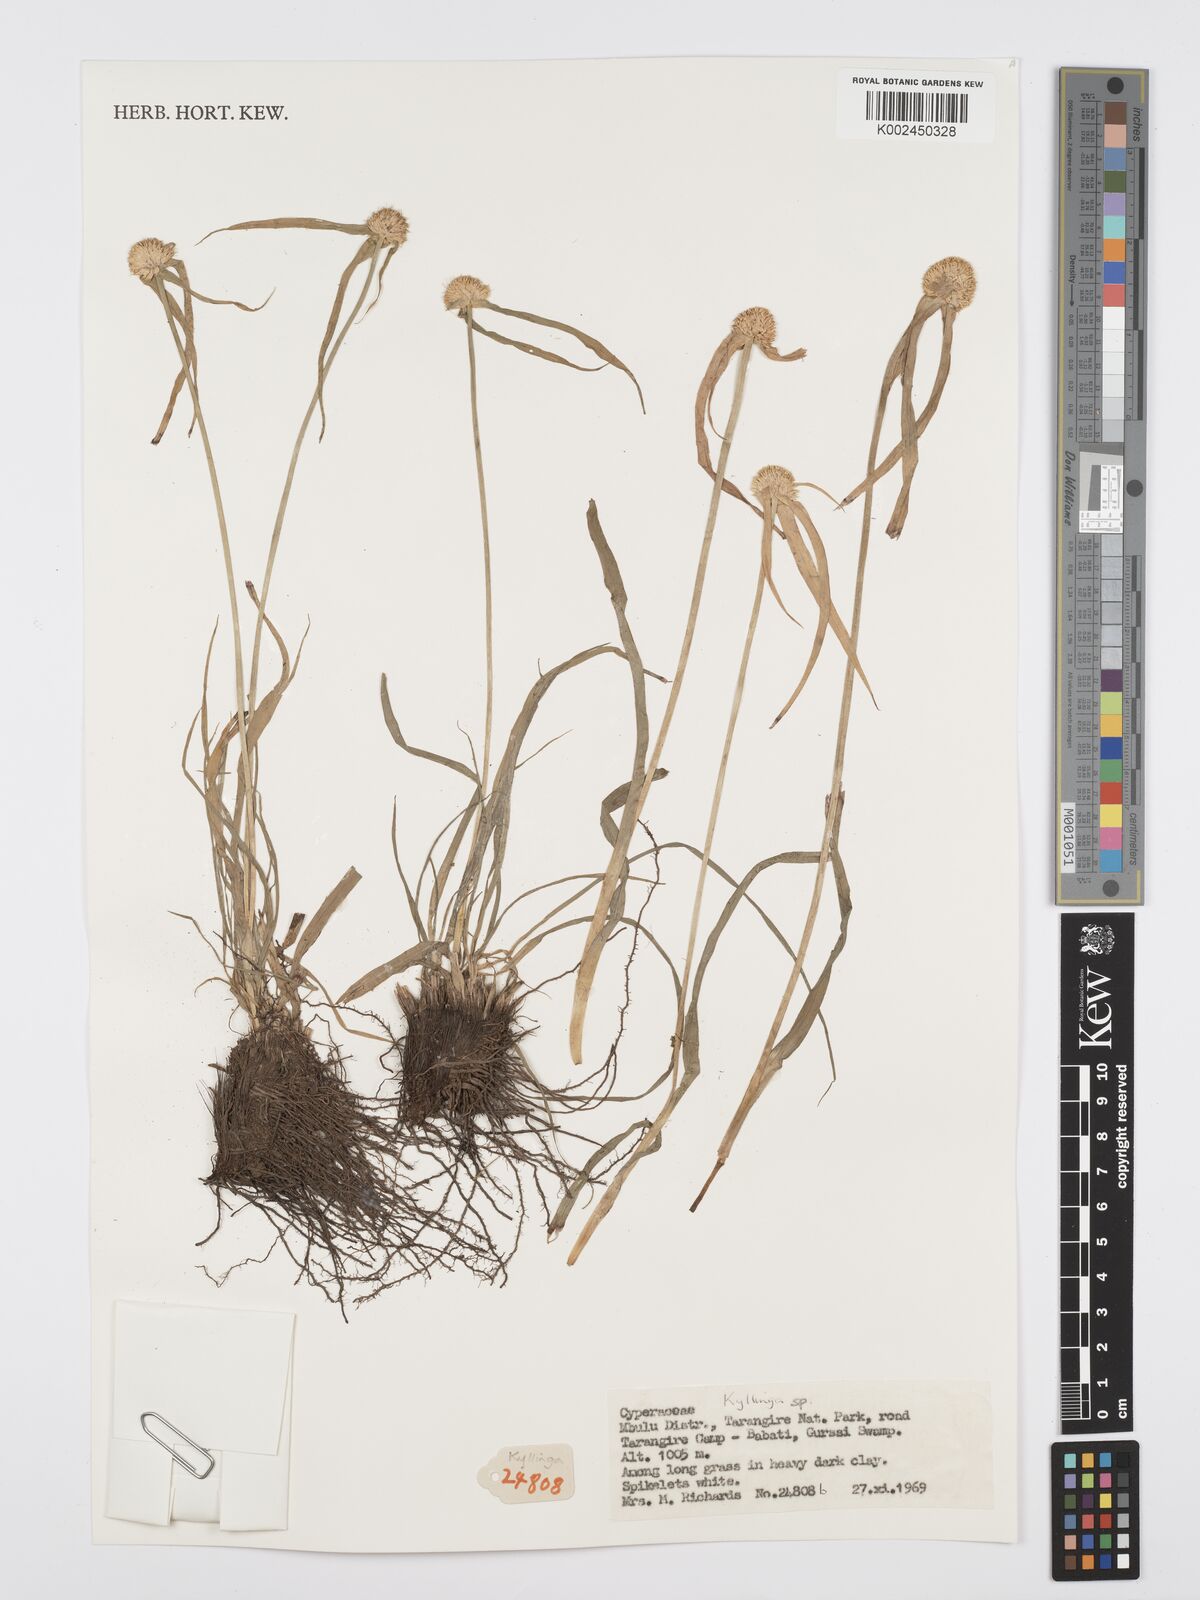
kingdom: Plantae
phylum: Tracheophyta
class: Liliopsida
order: Poales
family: Cyperaceae
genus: Cyperus
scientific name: Cyperus
